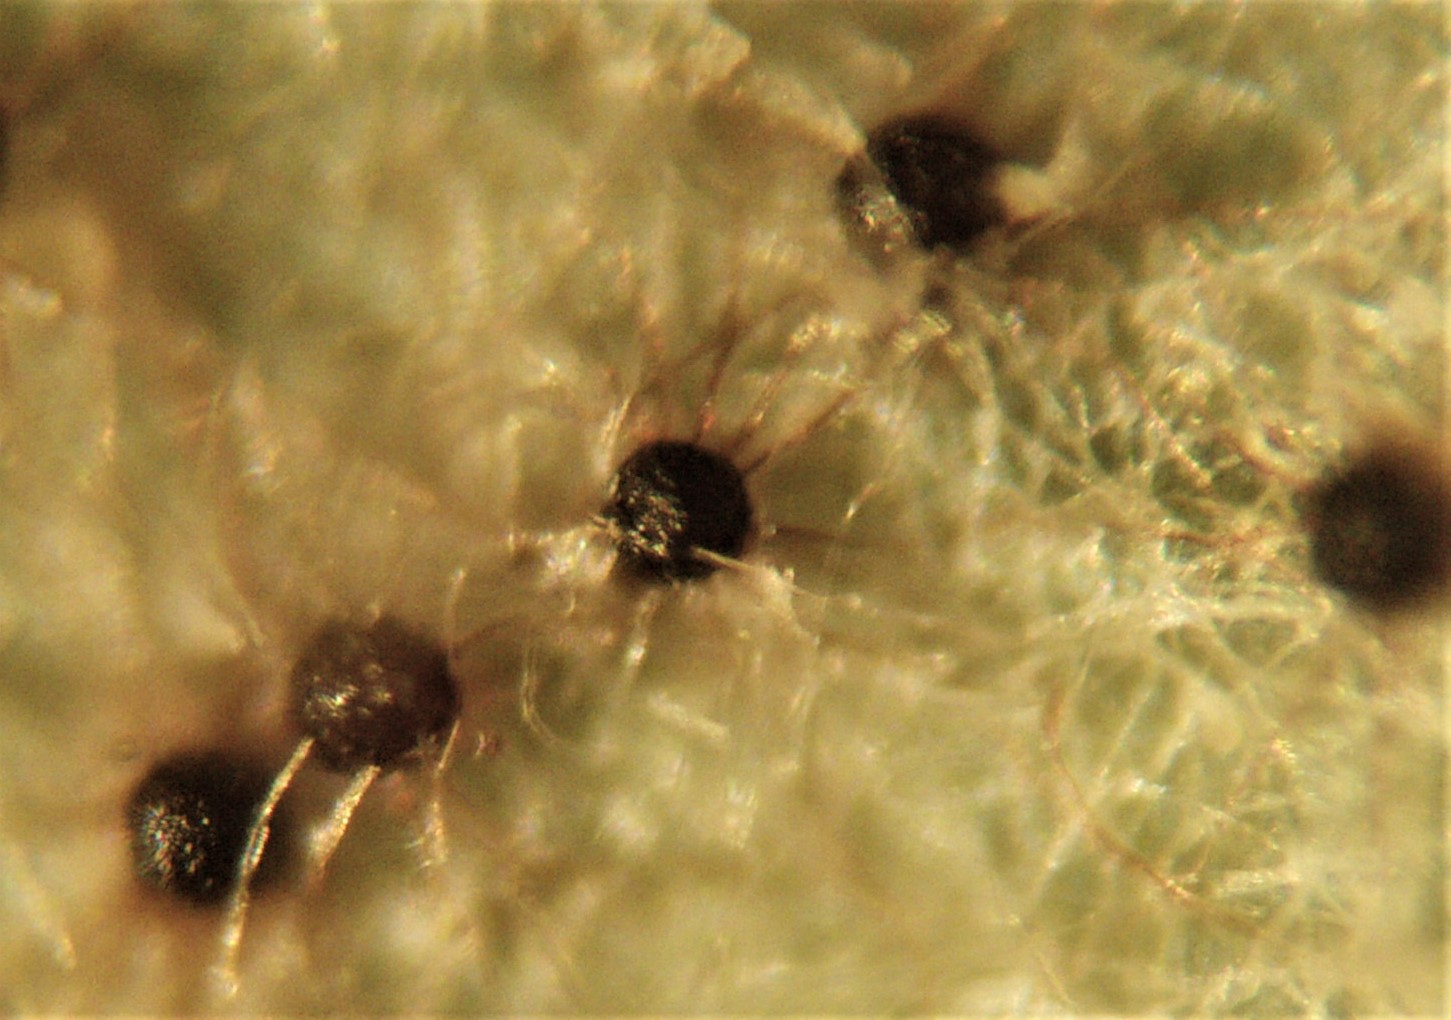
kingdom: Fungi
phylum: Ascomycota
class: Leotiomycetes
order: Helotiales
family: Erysiphaceae
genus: Erysiphe
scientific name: Erysiphe aquilegiae
